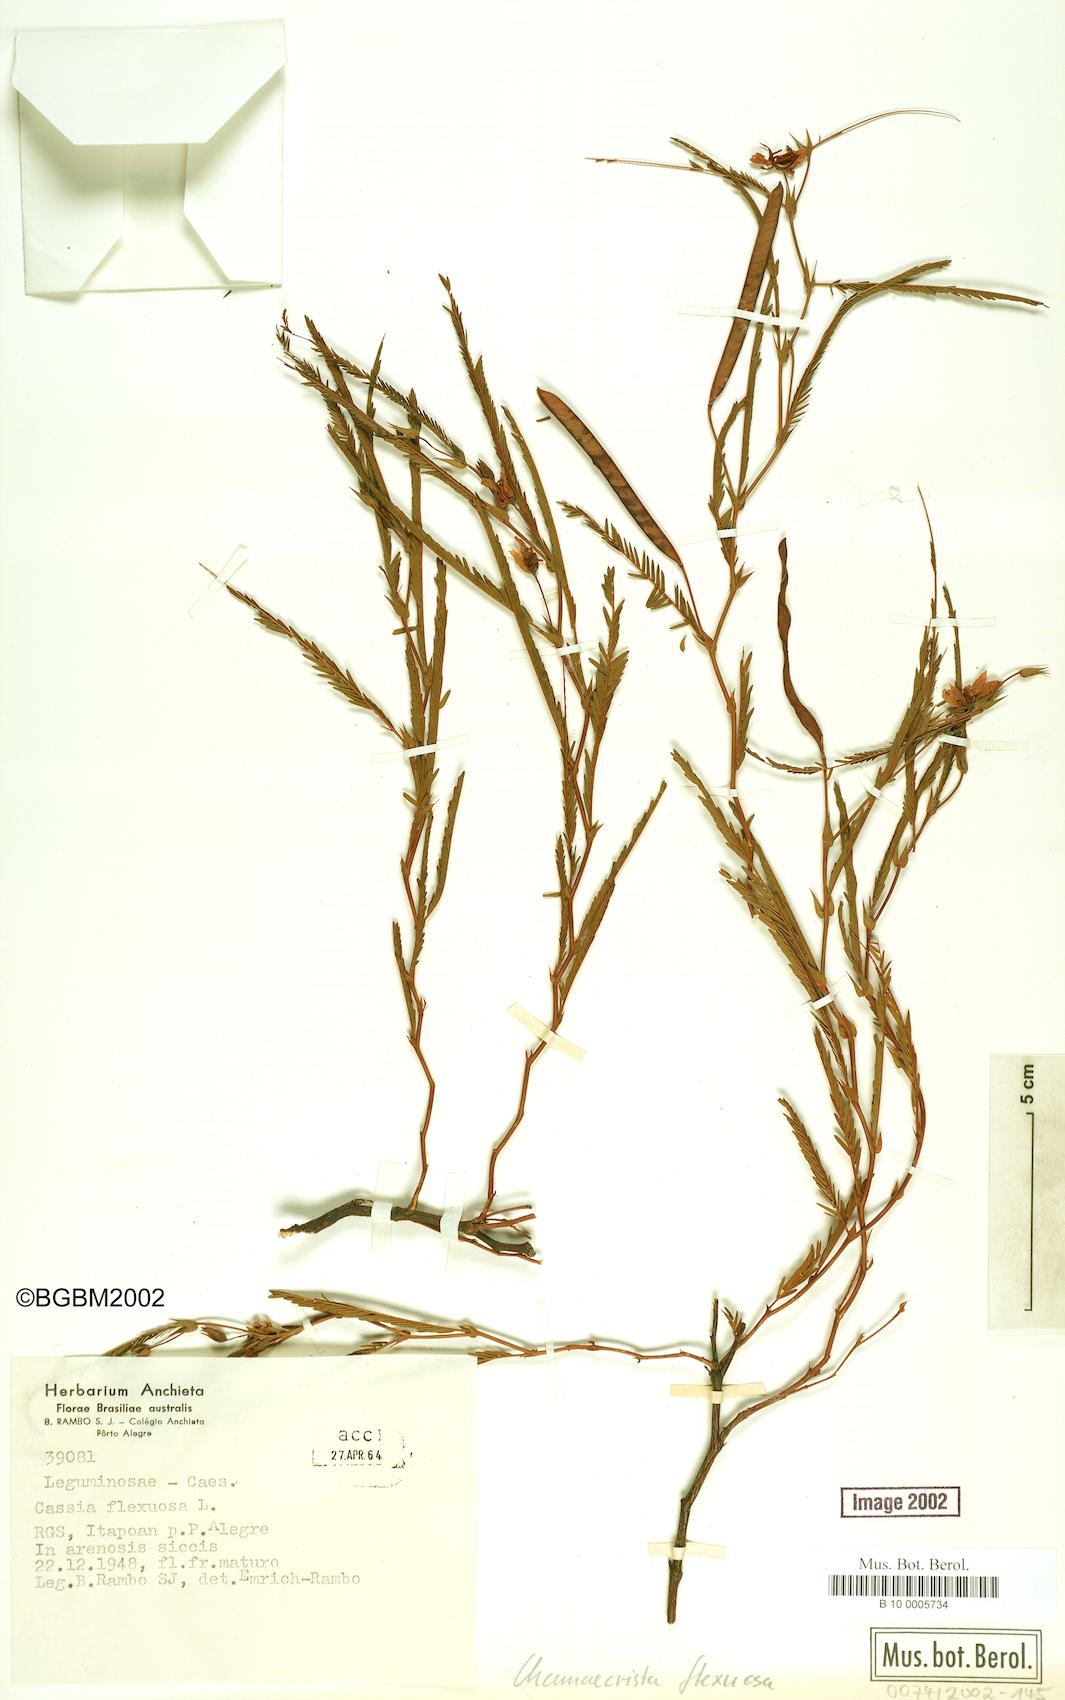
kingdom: Plantae
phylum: Tracheophyta
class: Magnoliopsida
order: Fabales
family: Fabaceae
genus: Chamaecrista
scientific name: Chamaecrista flexuosa
